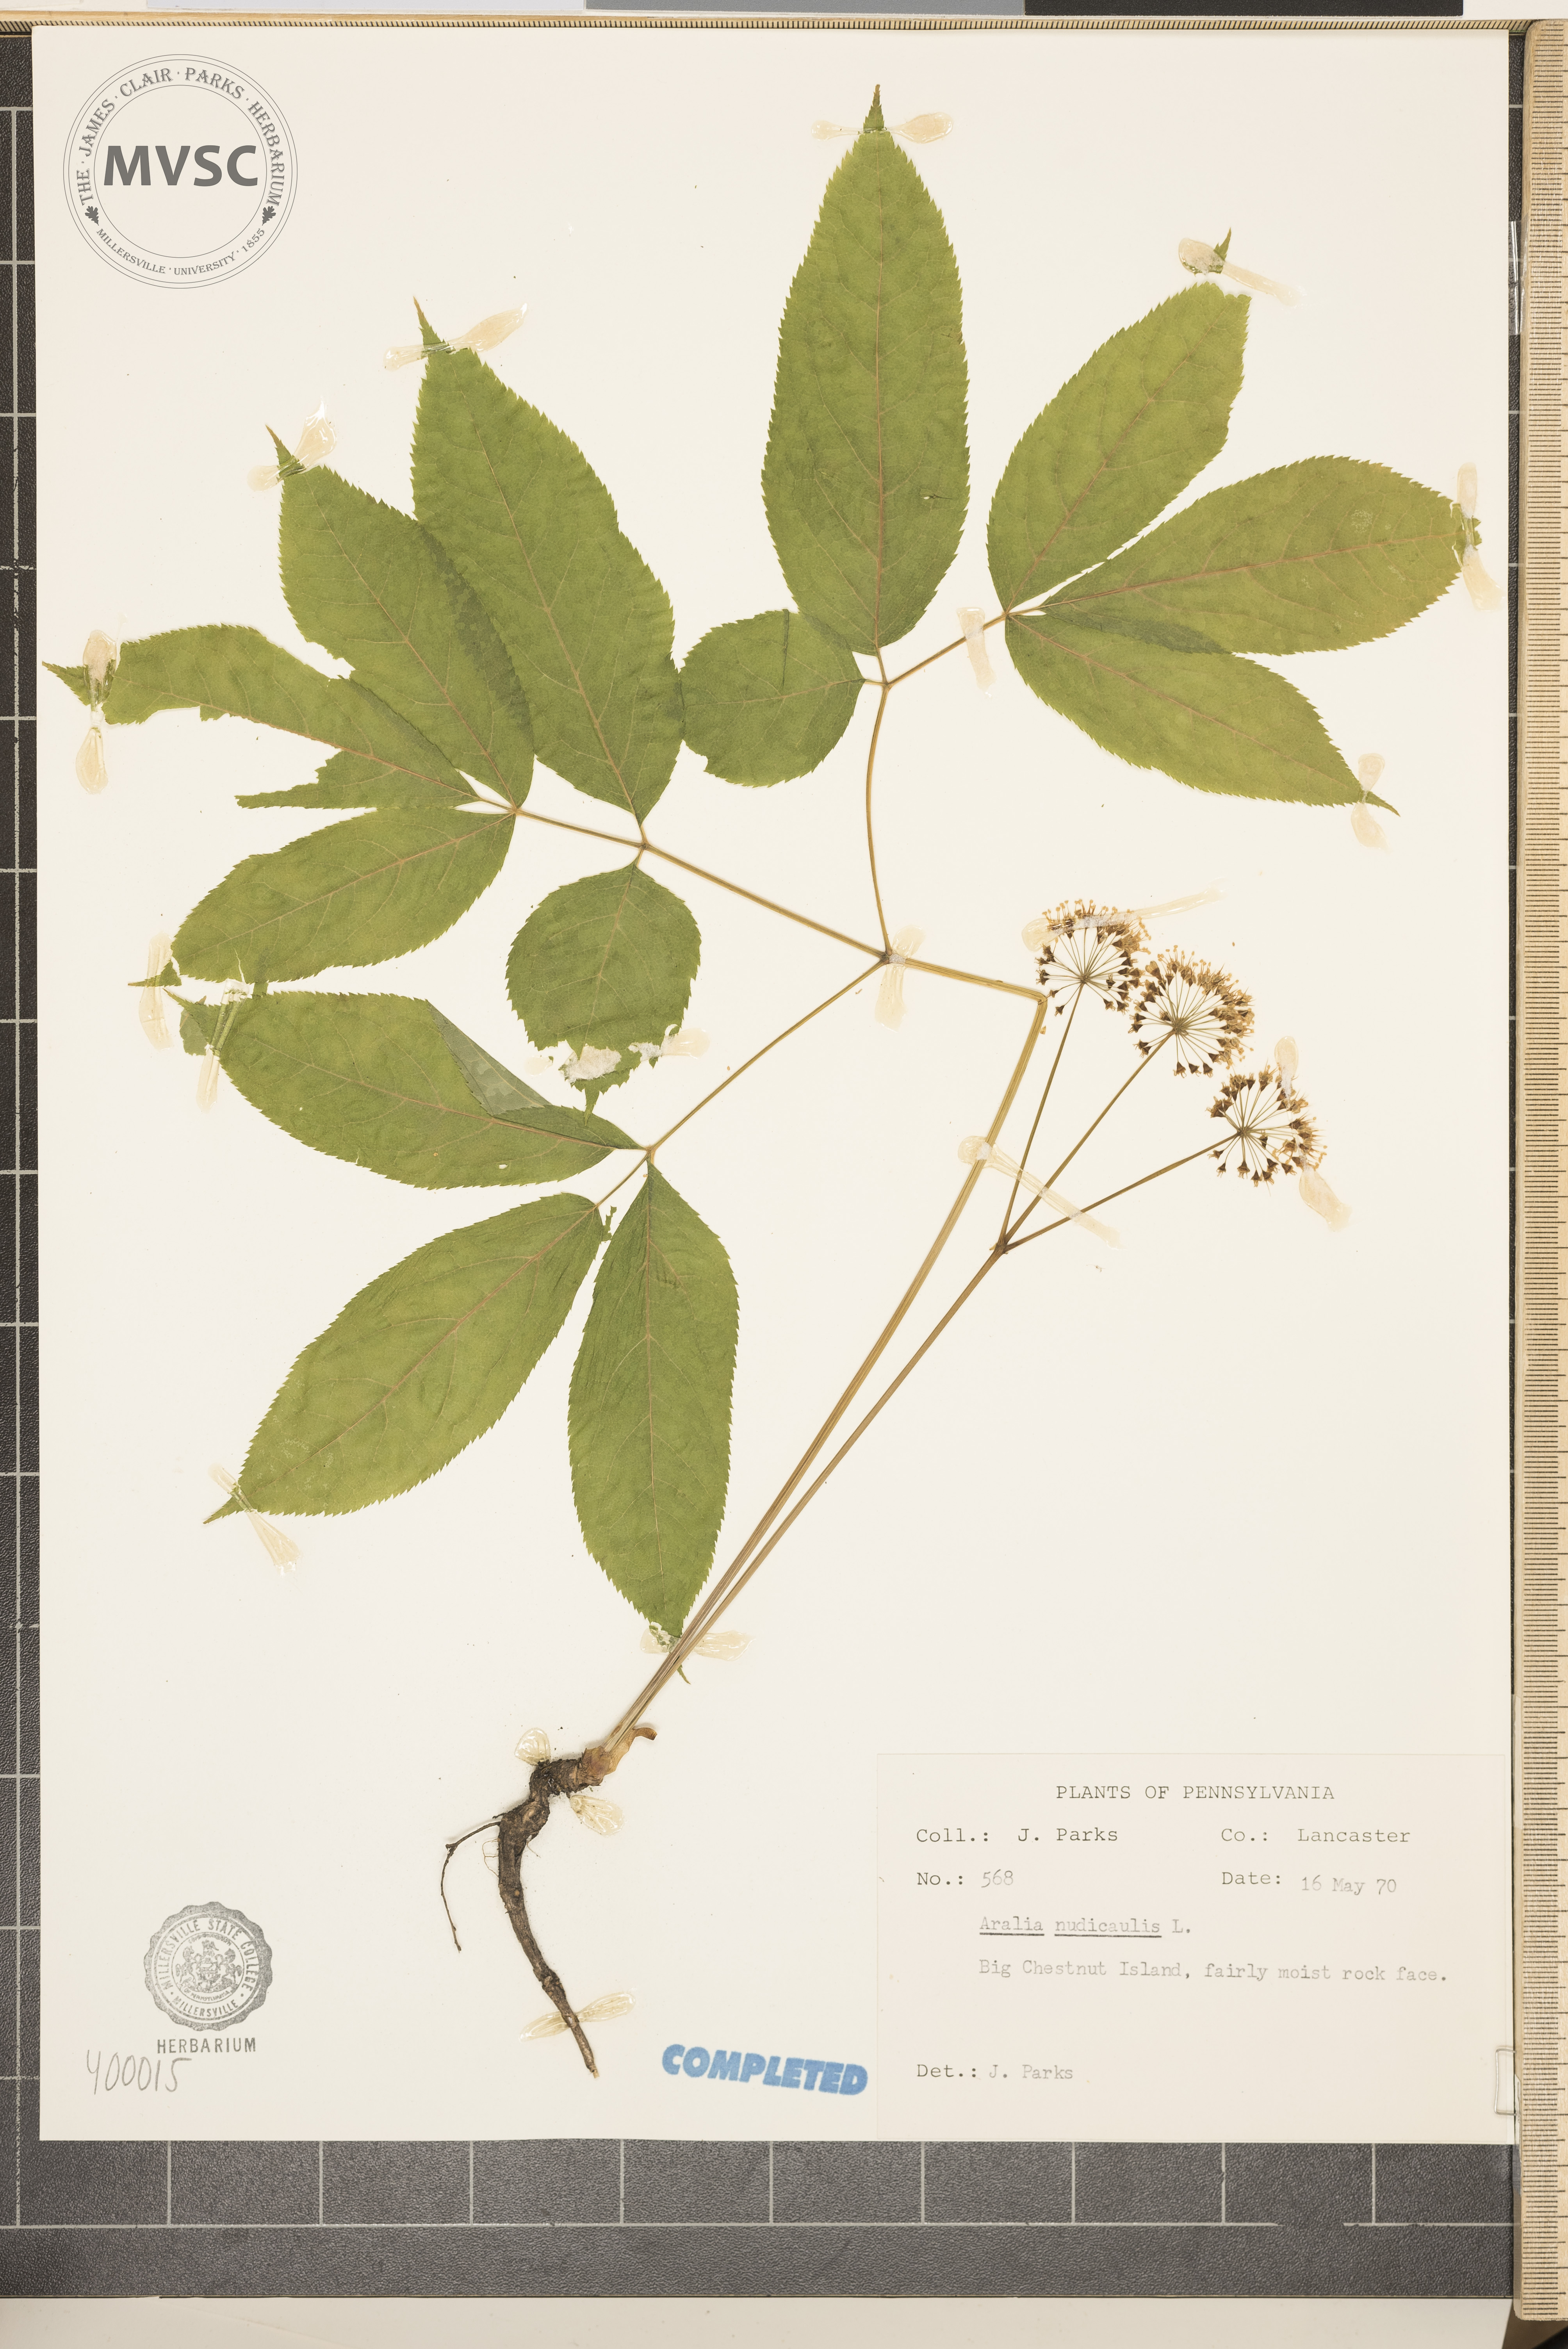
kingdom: Plantae
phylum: Tracheophyta
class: Magnoliopsida
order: Apiales
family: Araliaceae
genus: Aralia
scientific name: Aralia nudicaulis
